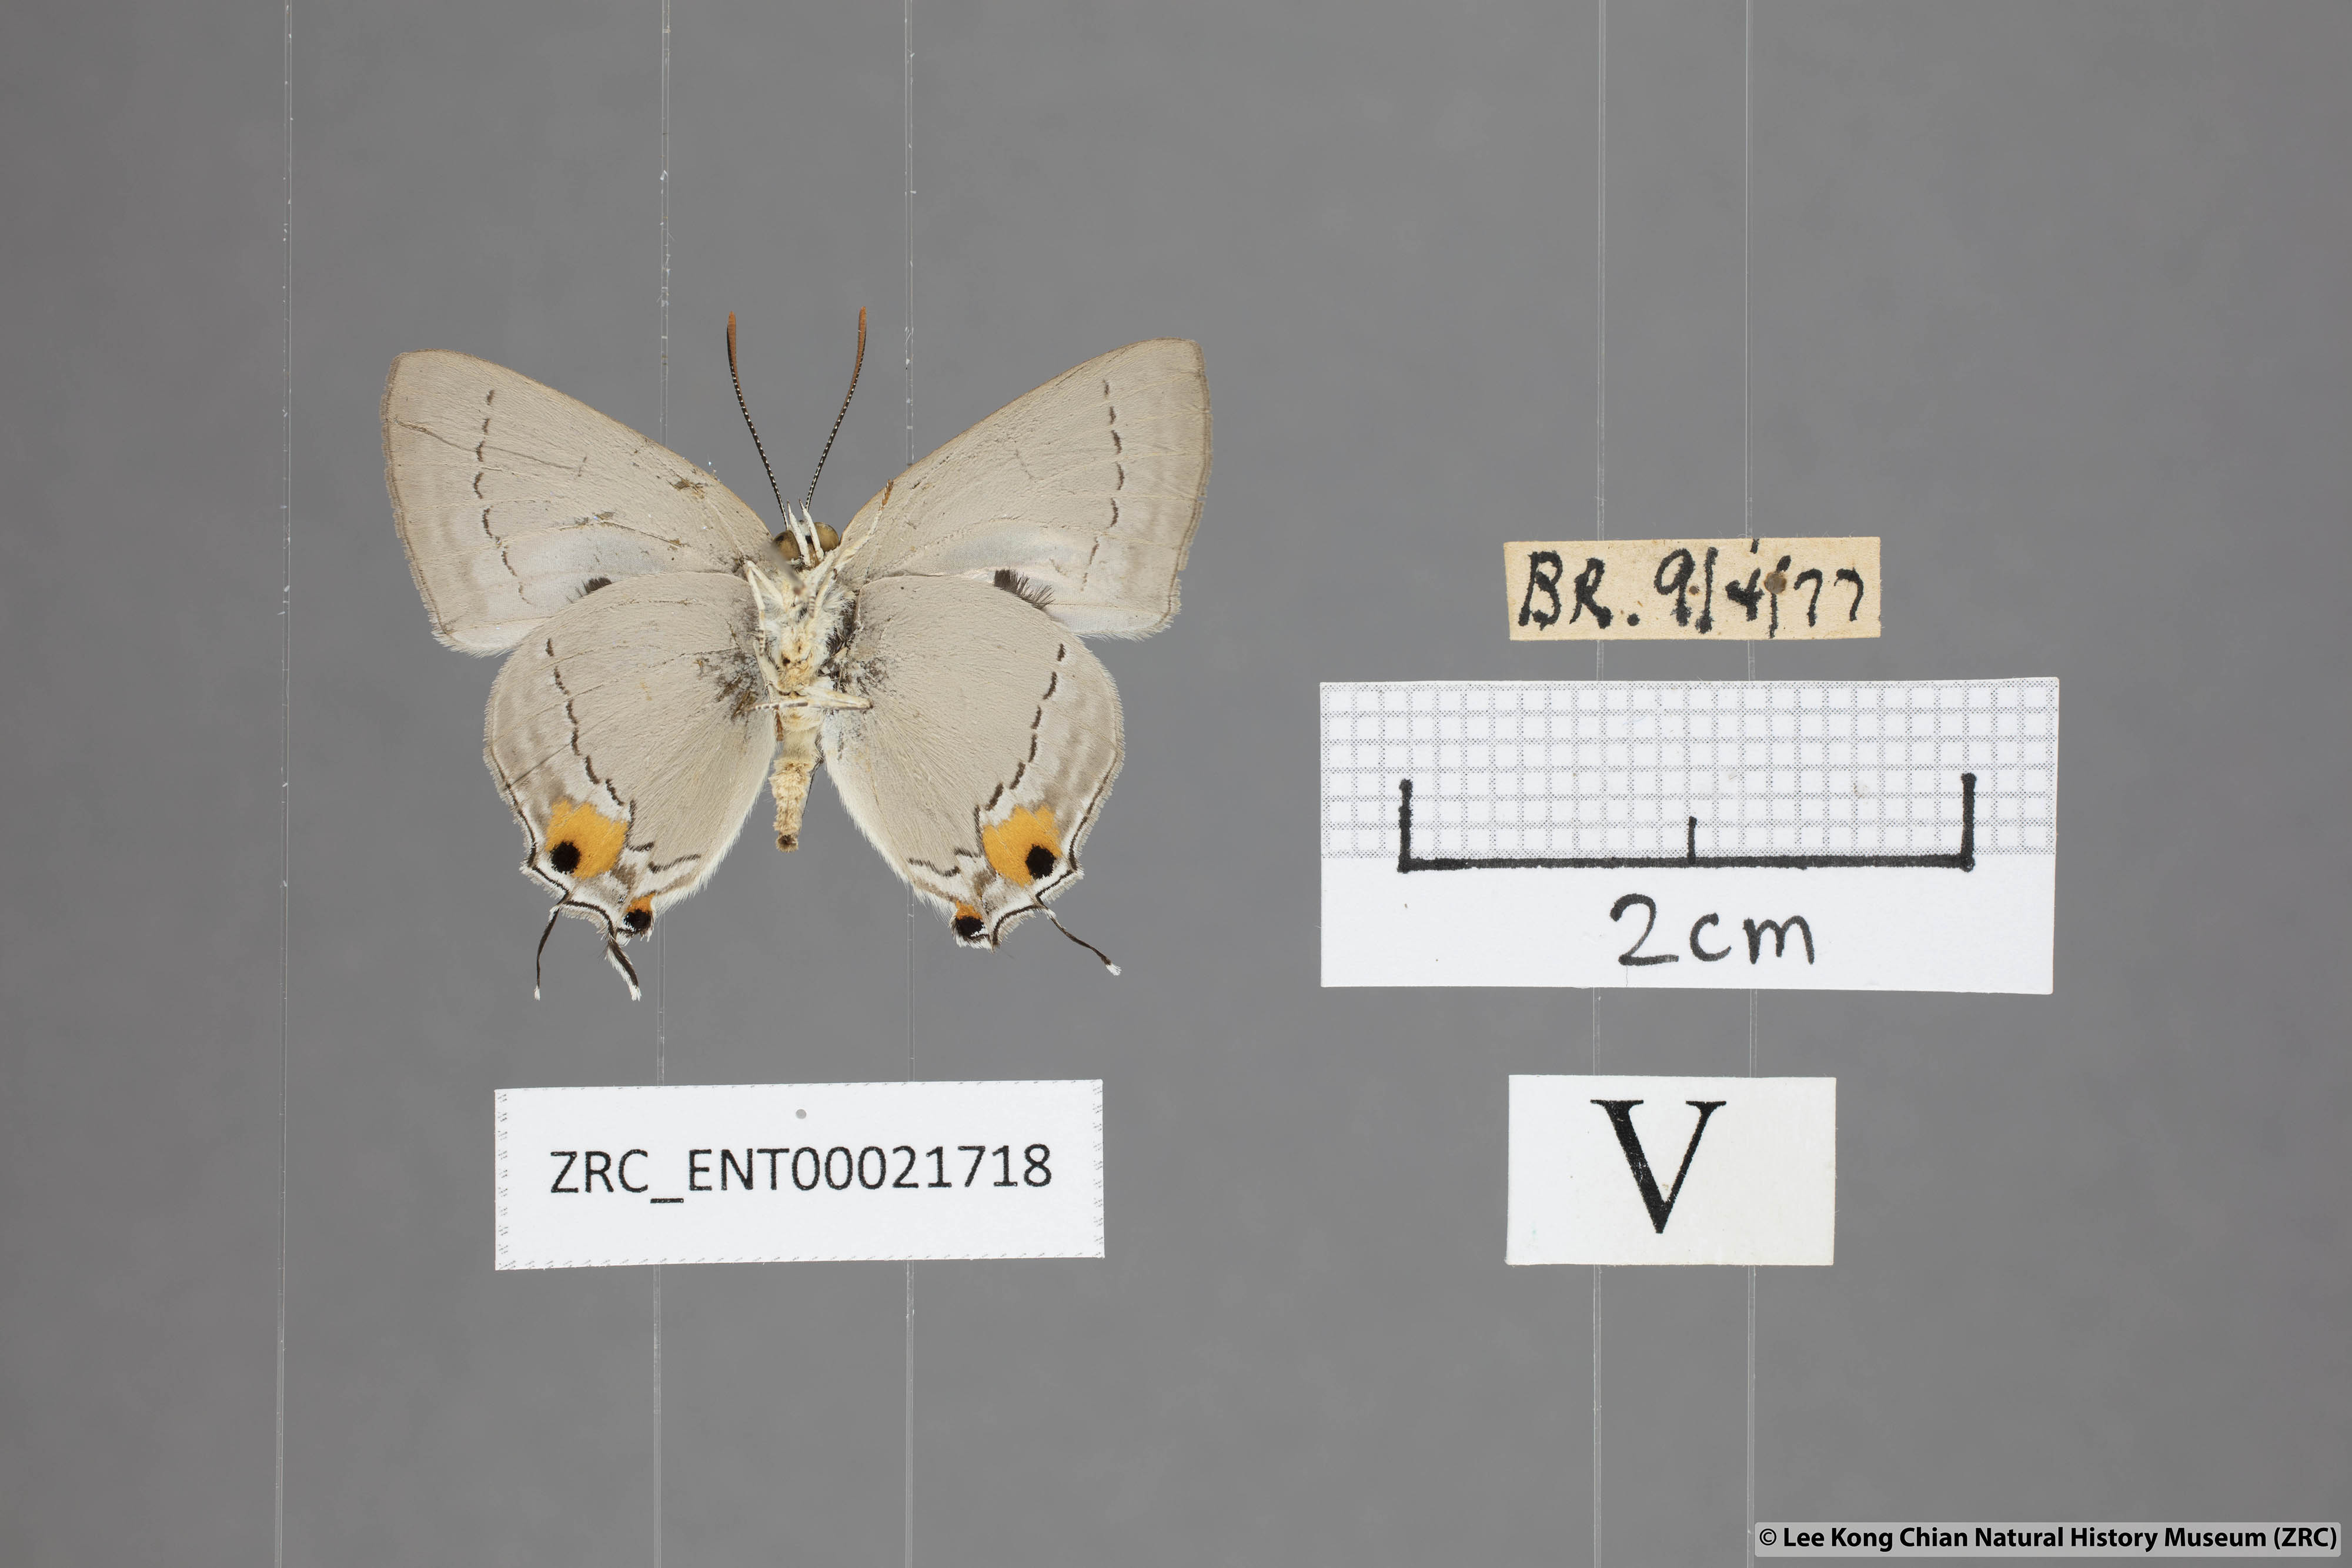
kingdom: Animalia
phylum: Arthropoda
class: Insecta
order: Lepidoptera
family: Lycaenidae
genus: Pratapa
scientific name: Pratapa deva
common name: White royal
